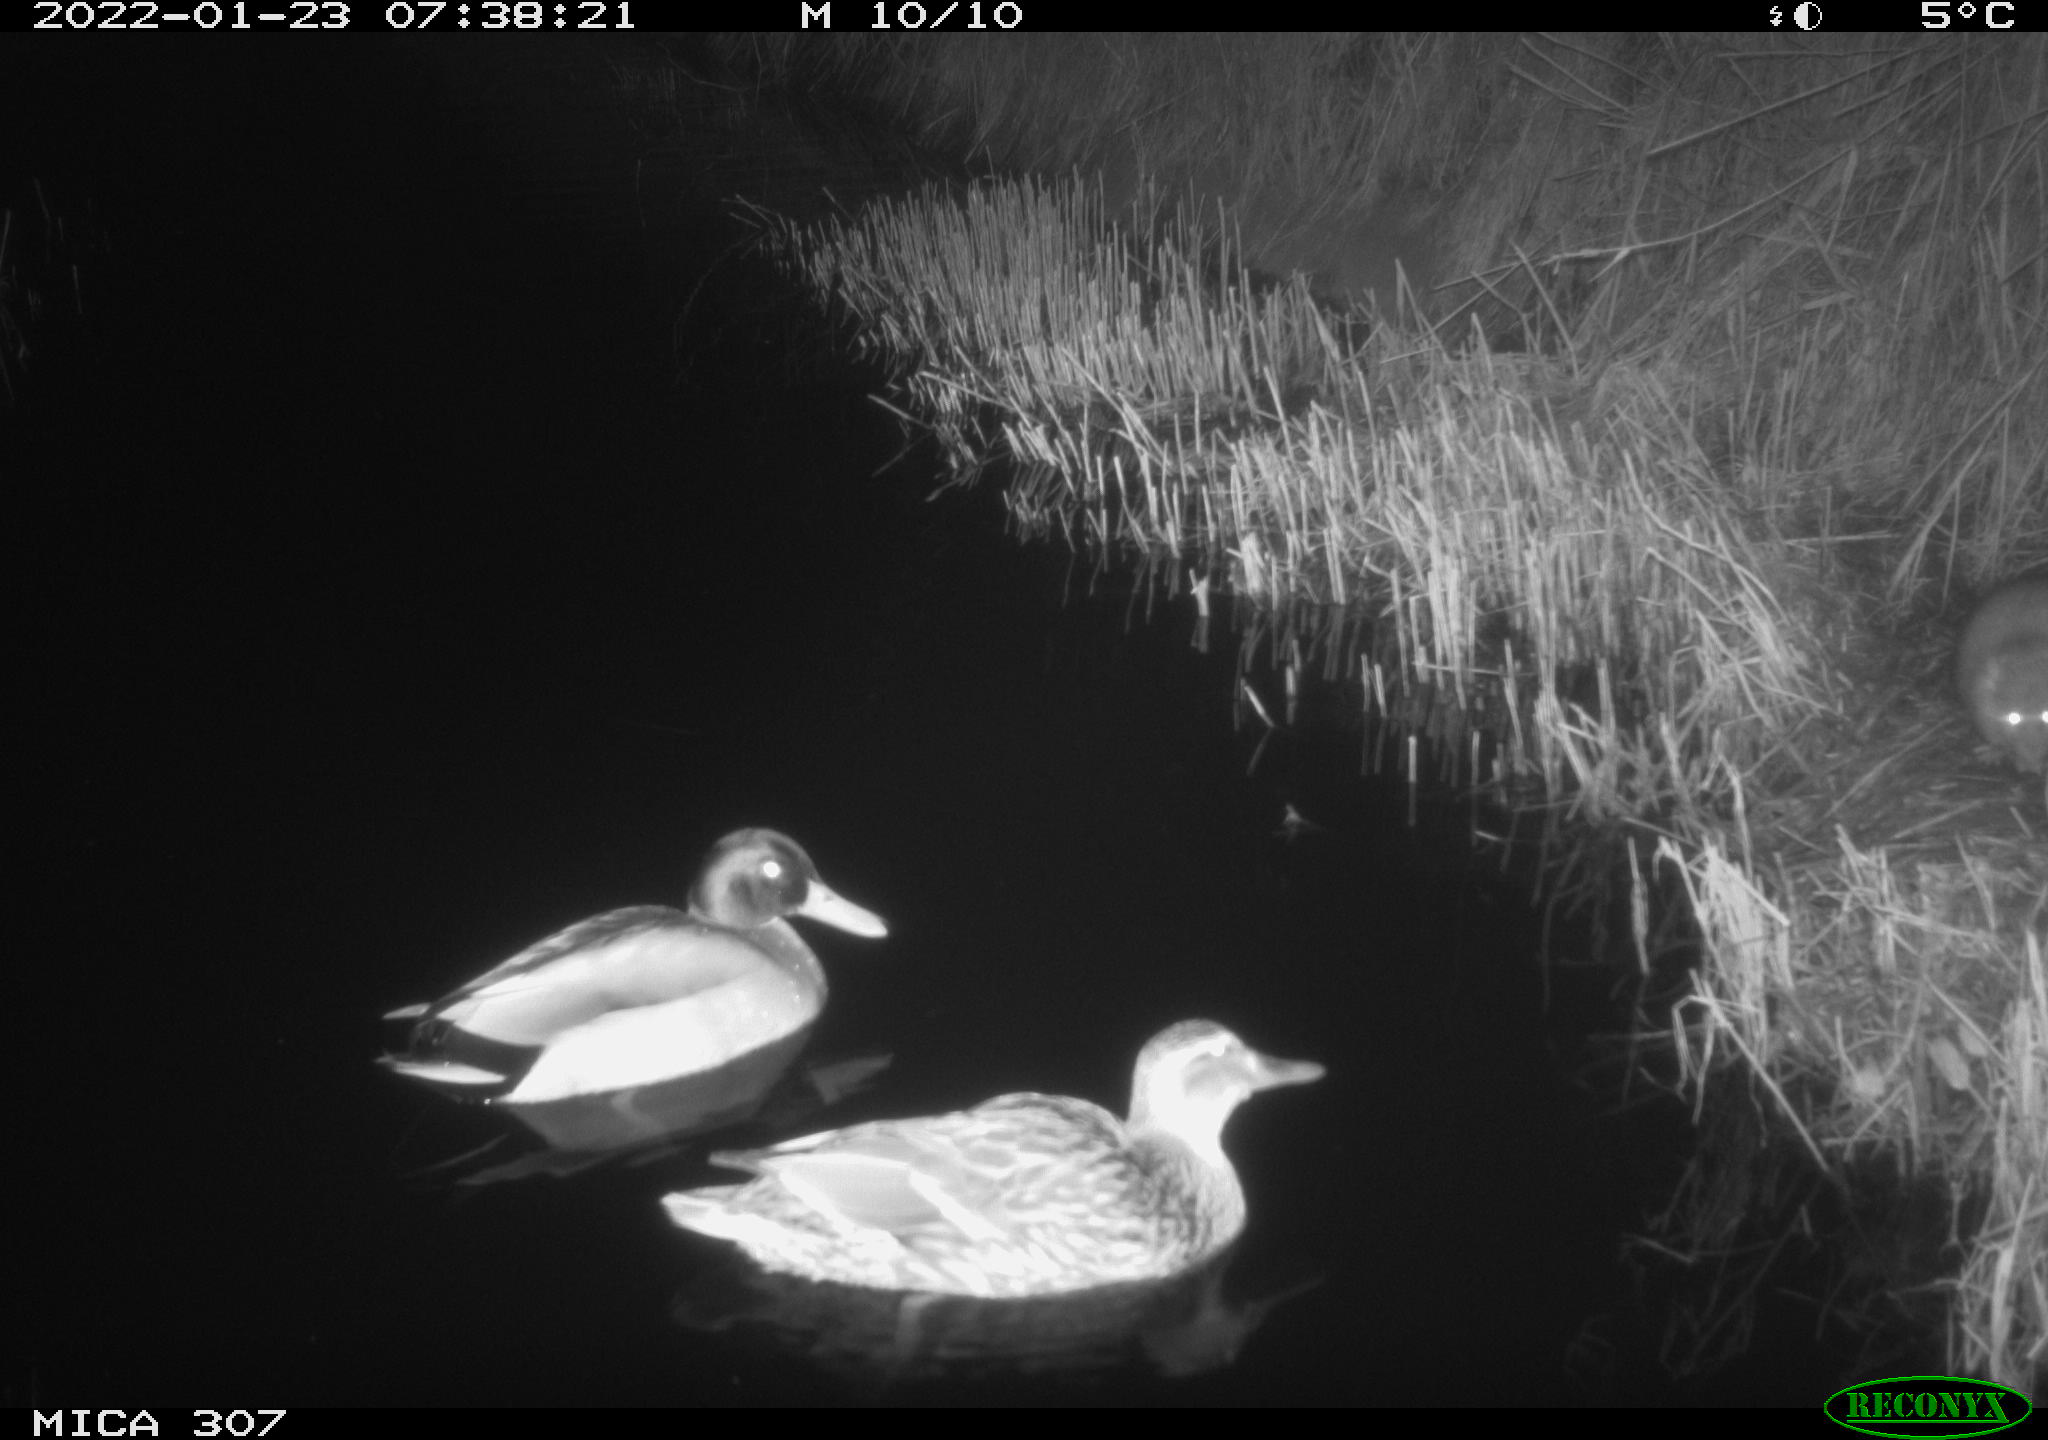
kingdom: Animalia
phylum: Chordata
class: Aves
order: Anseriformes
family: Anatidae
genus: Anas
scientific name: Anas platyrhynchos
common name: Mallard
